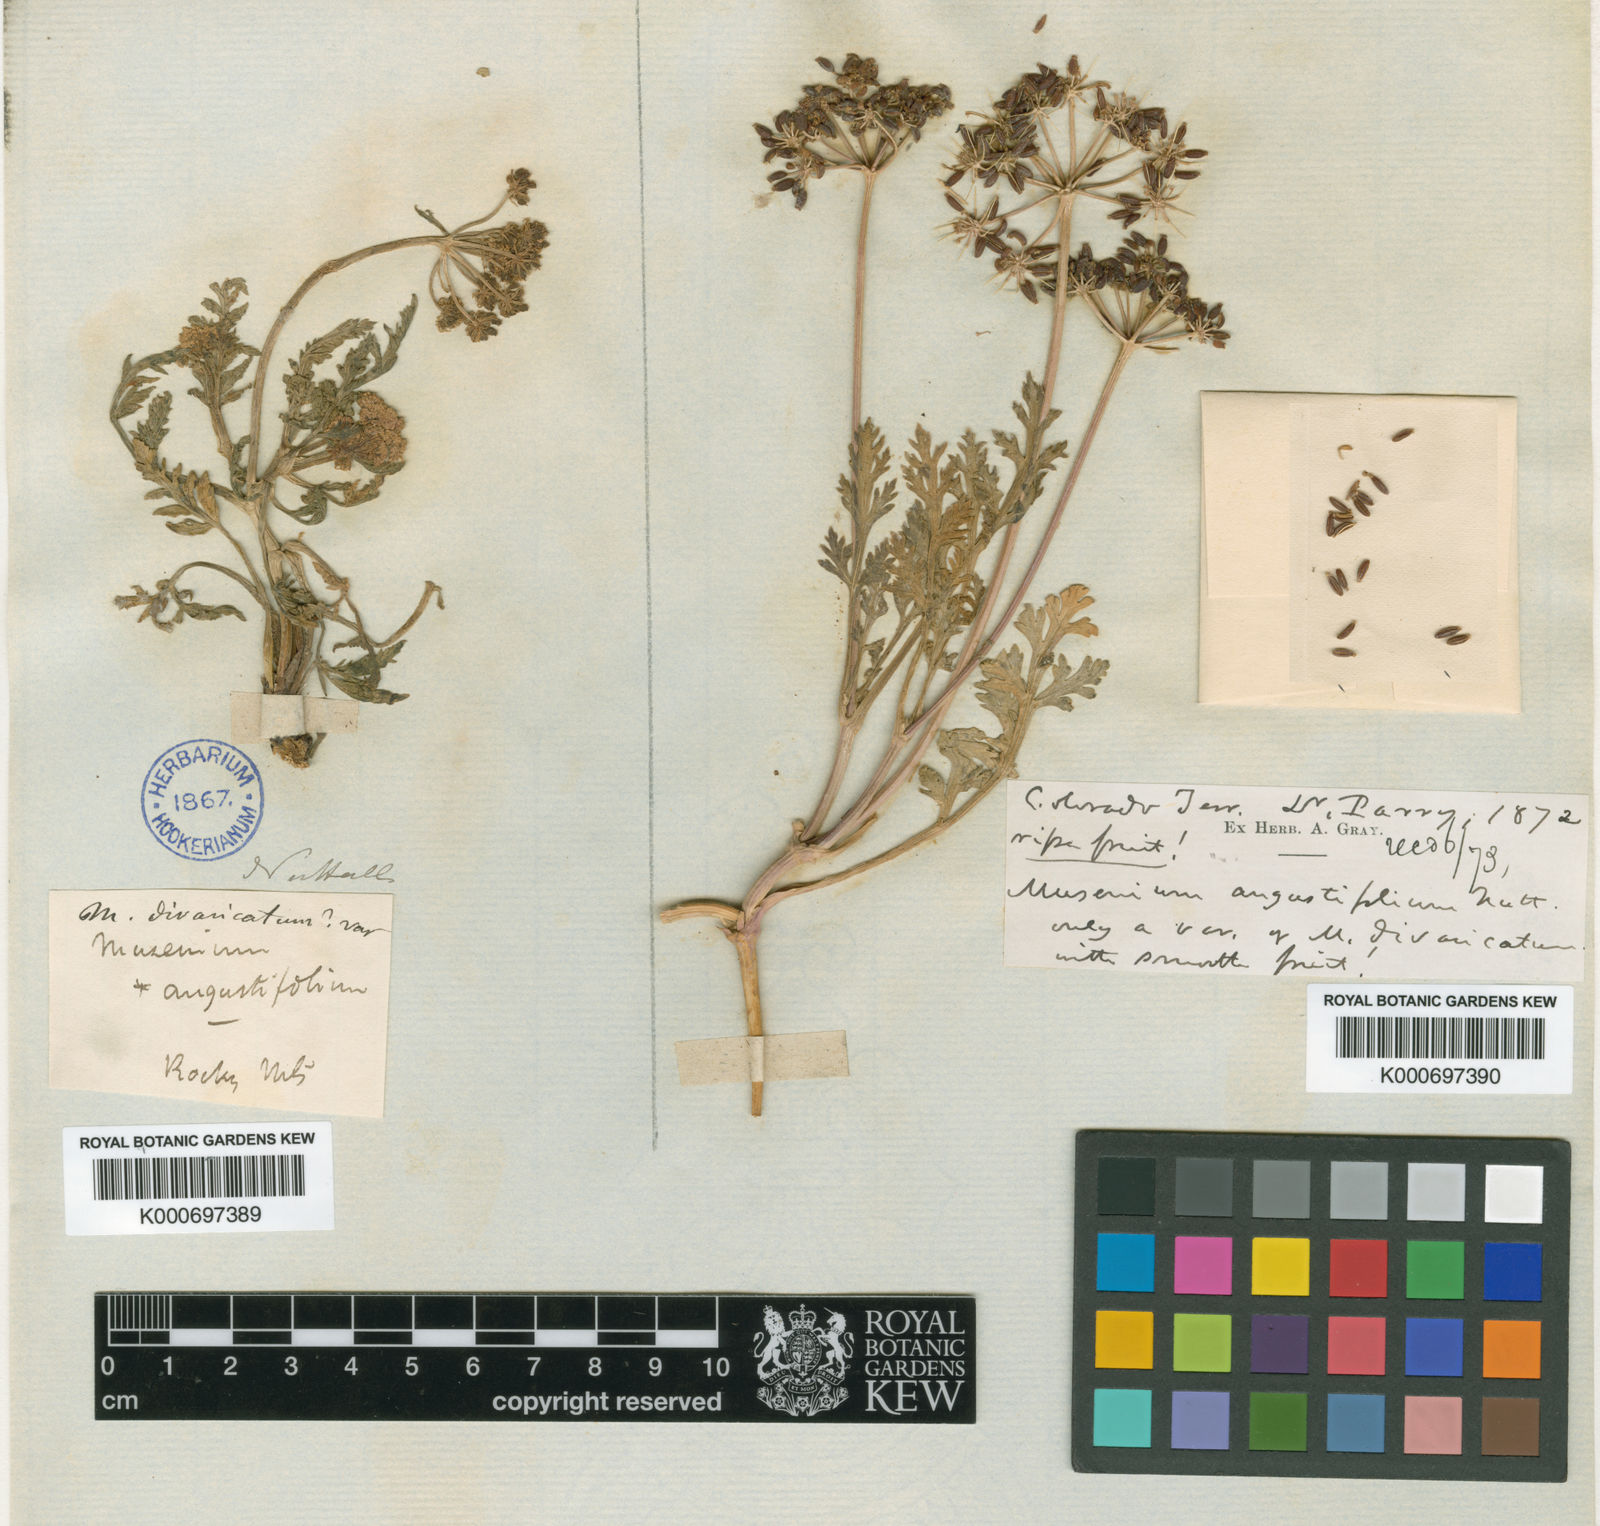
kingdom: Plantae
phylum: Tracheophyta
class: Magnoliopsida
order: Apiales
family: Apiaceae
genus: Musineon
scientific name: Musineon
